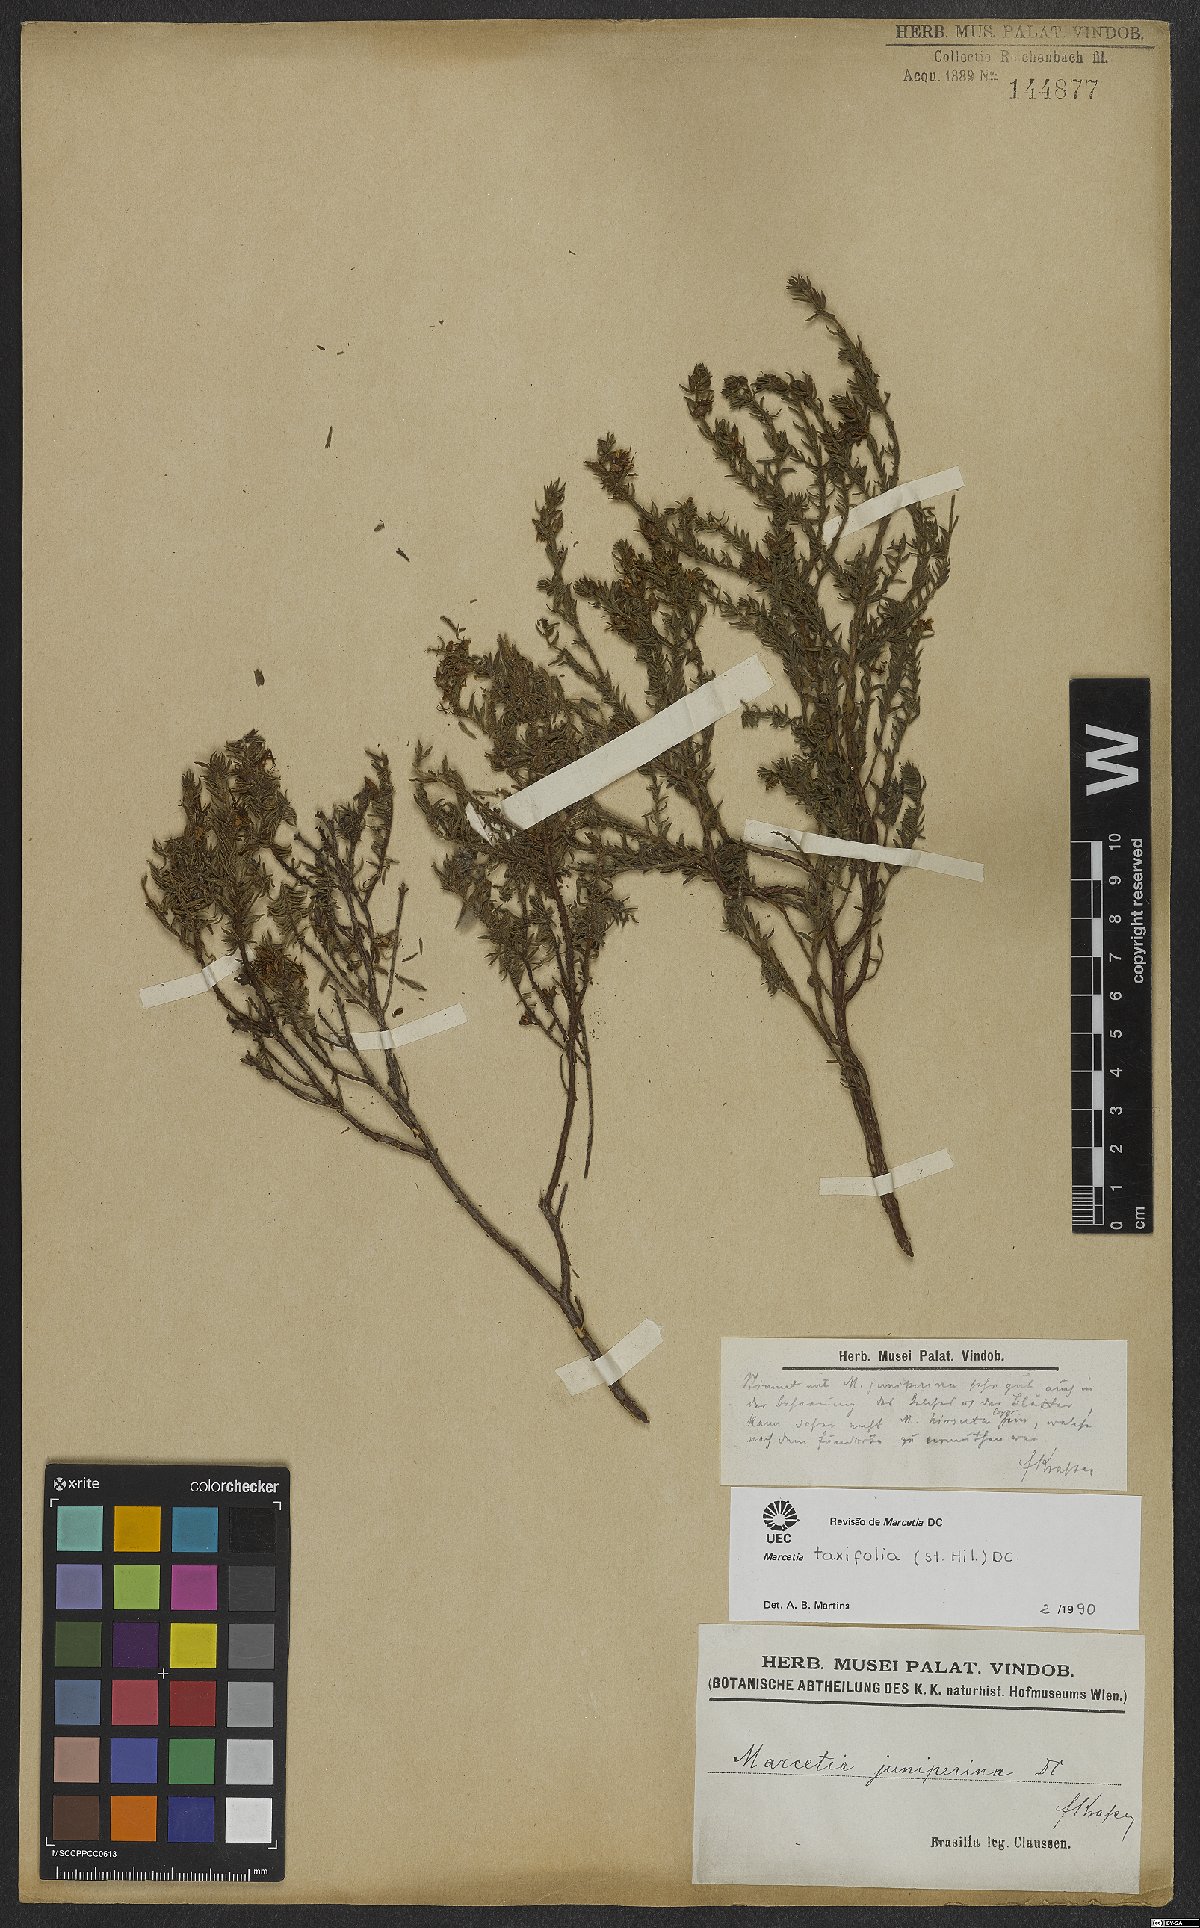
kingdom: Plantae
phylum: Tracheophyta
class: Magnoliopsida
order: Myrtales
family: Melastomataceae
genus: Marcetia
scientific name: Marcetia taxifolia
